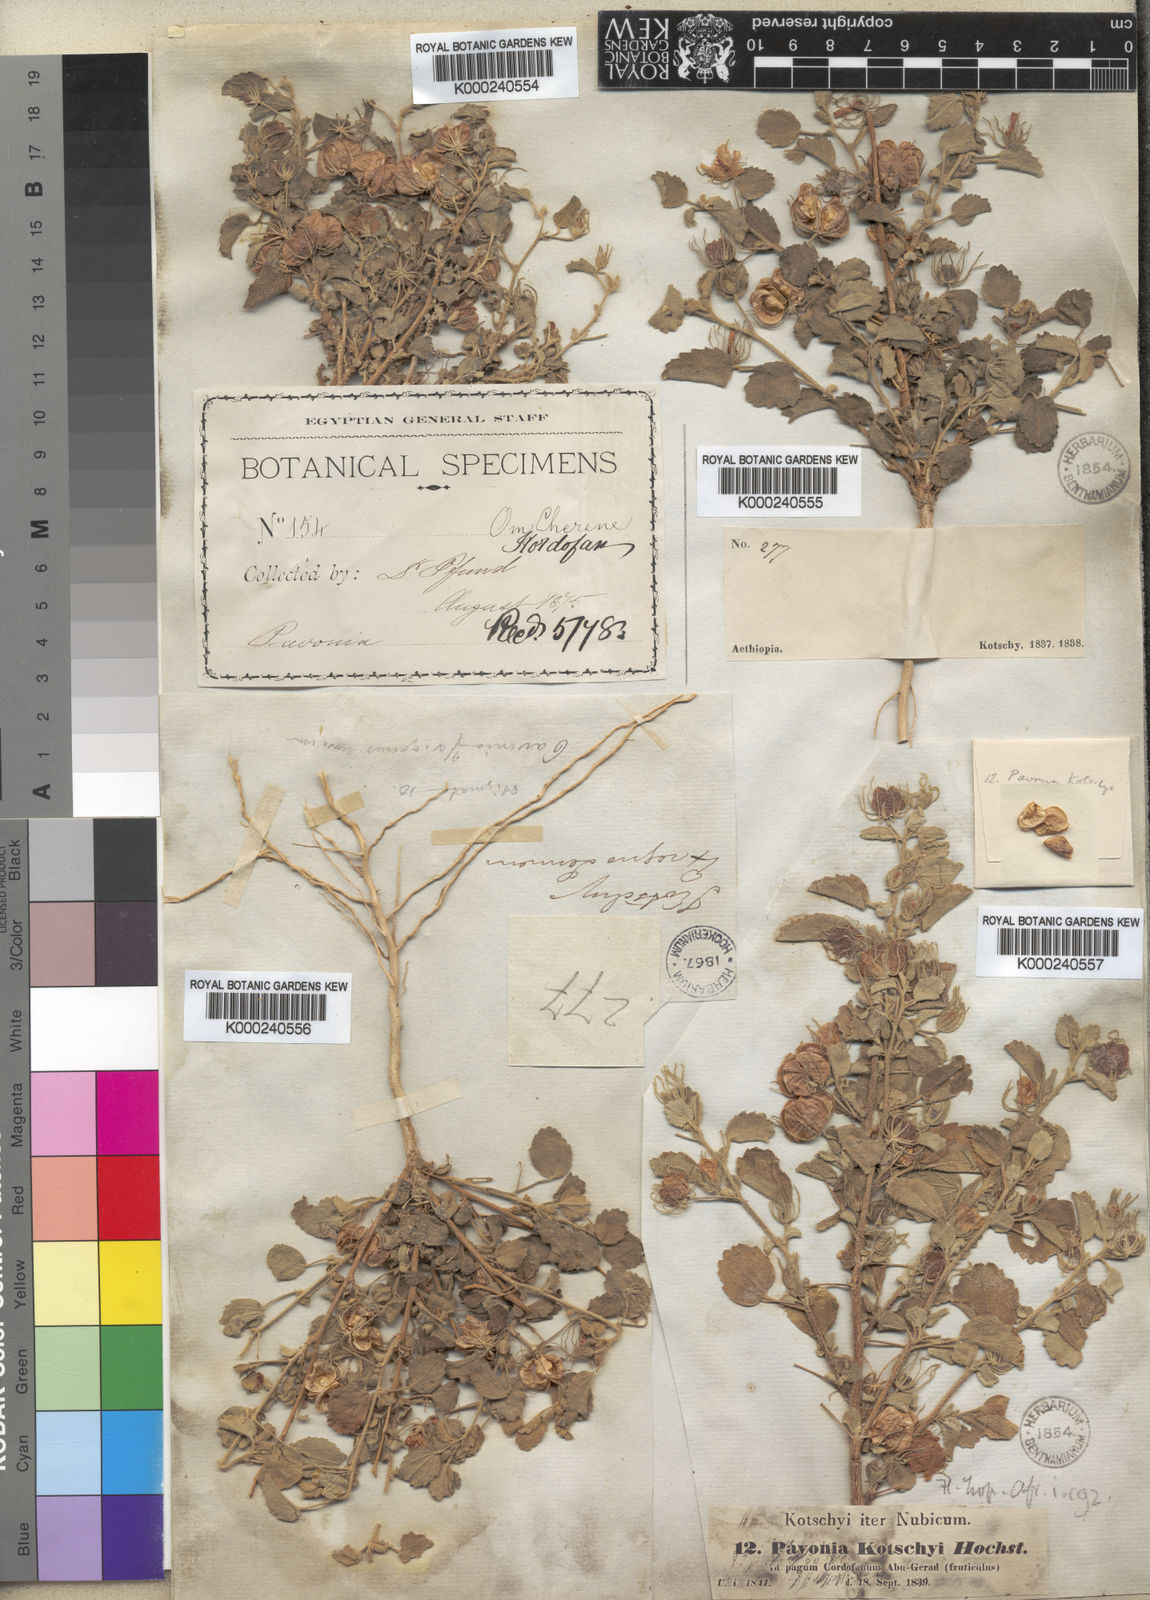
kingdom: Plantae
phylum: Tracheophyta
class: Magnoliopsida
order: Malvales
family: Malvaceae
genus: Pavonia
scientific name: Pavonia kotschyi
